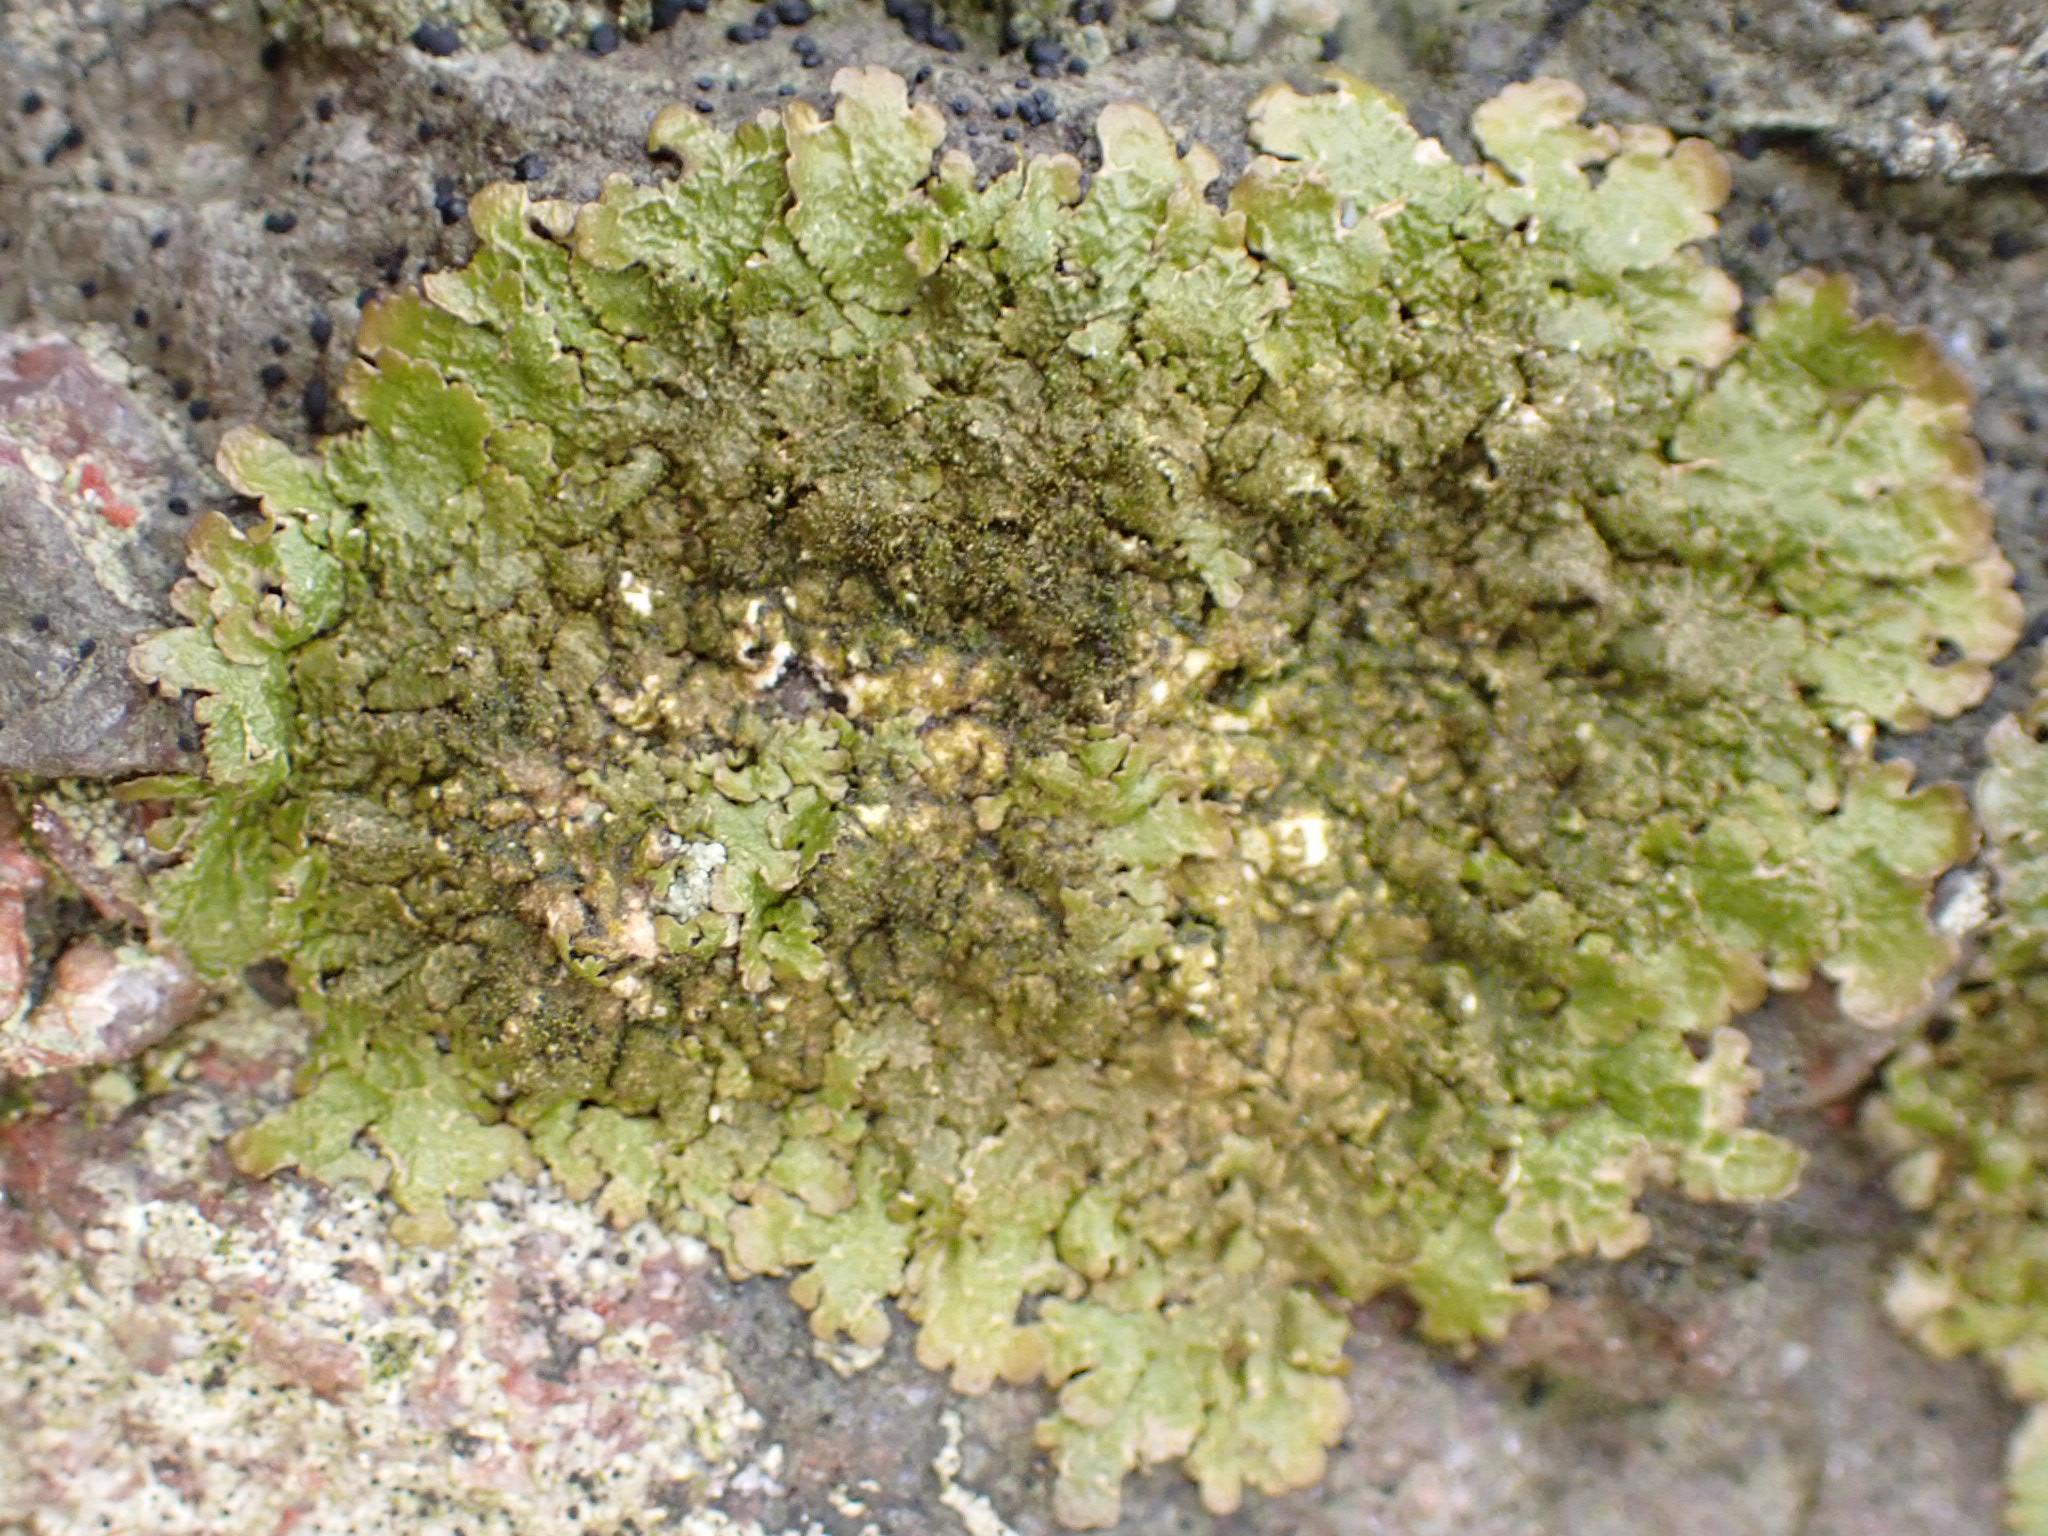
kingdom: Fungi
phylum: Ascomycota
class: Lecanoromycetes
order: Lecanorales
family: Parmeliaceae
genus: Melanelixia
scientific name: Melanelixia glabratula
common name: glinsende skållav
